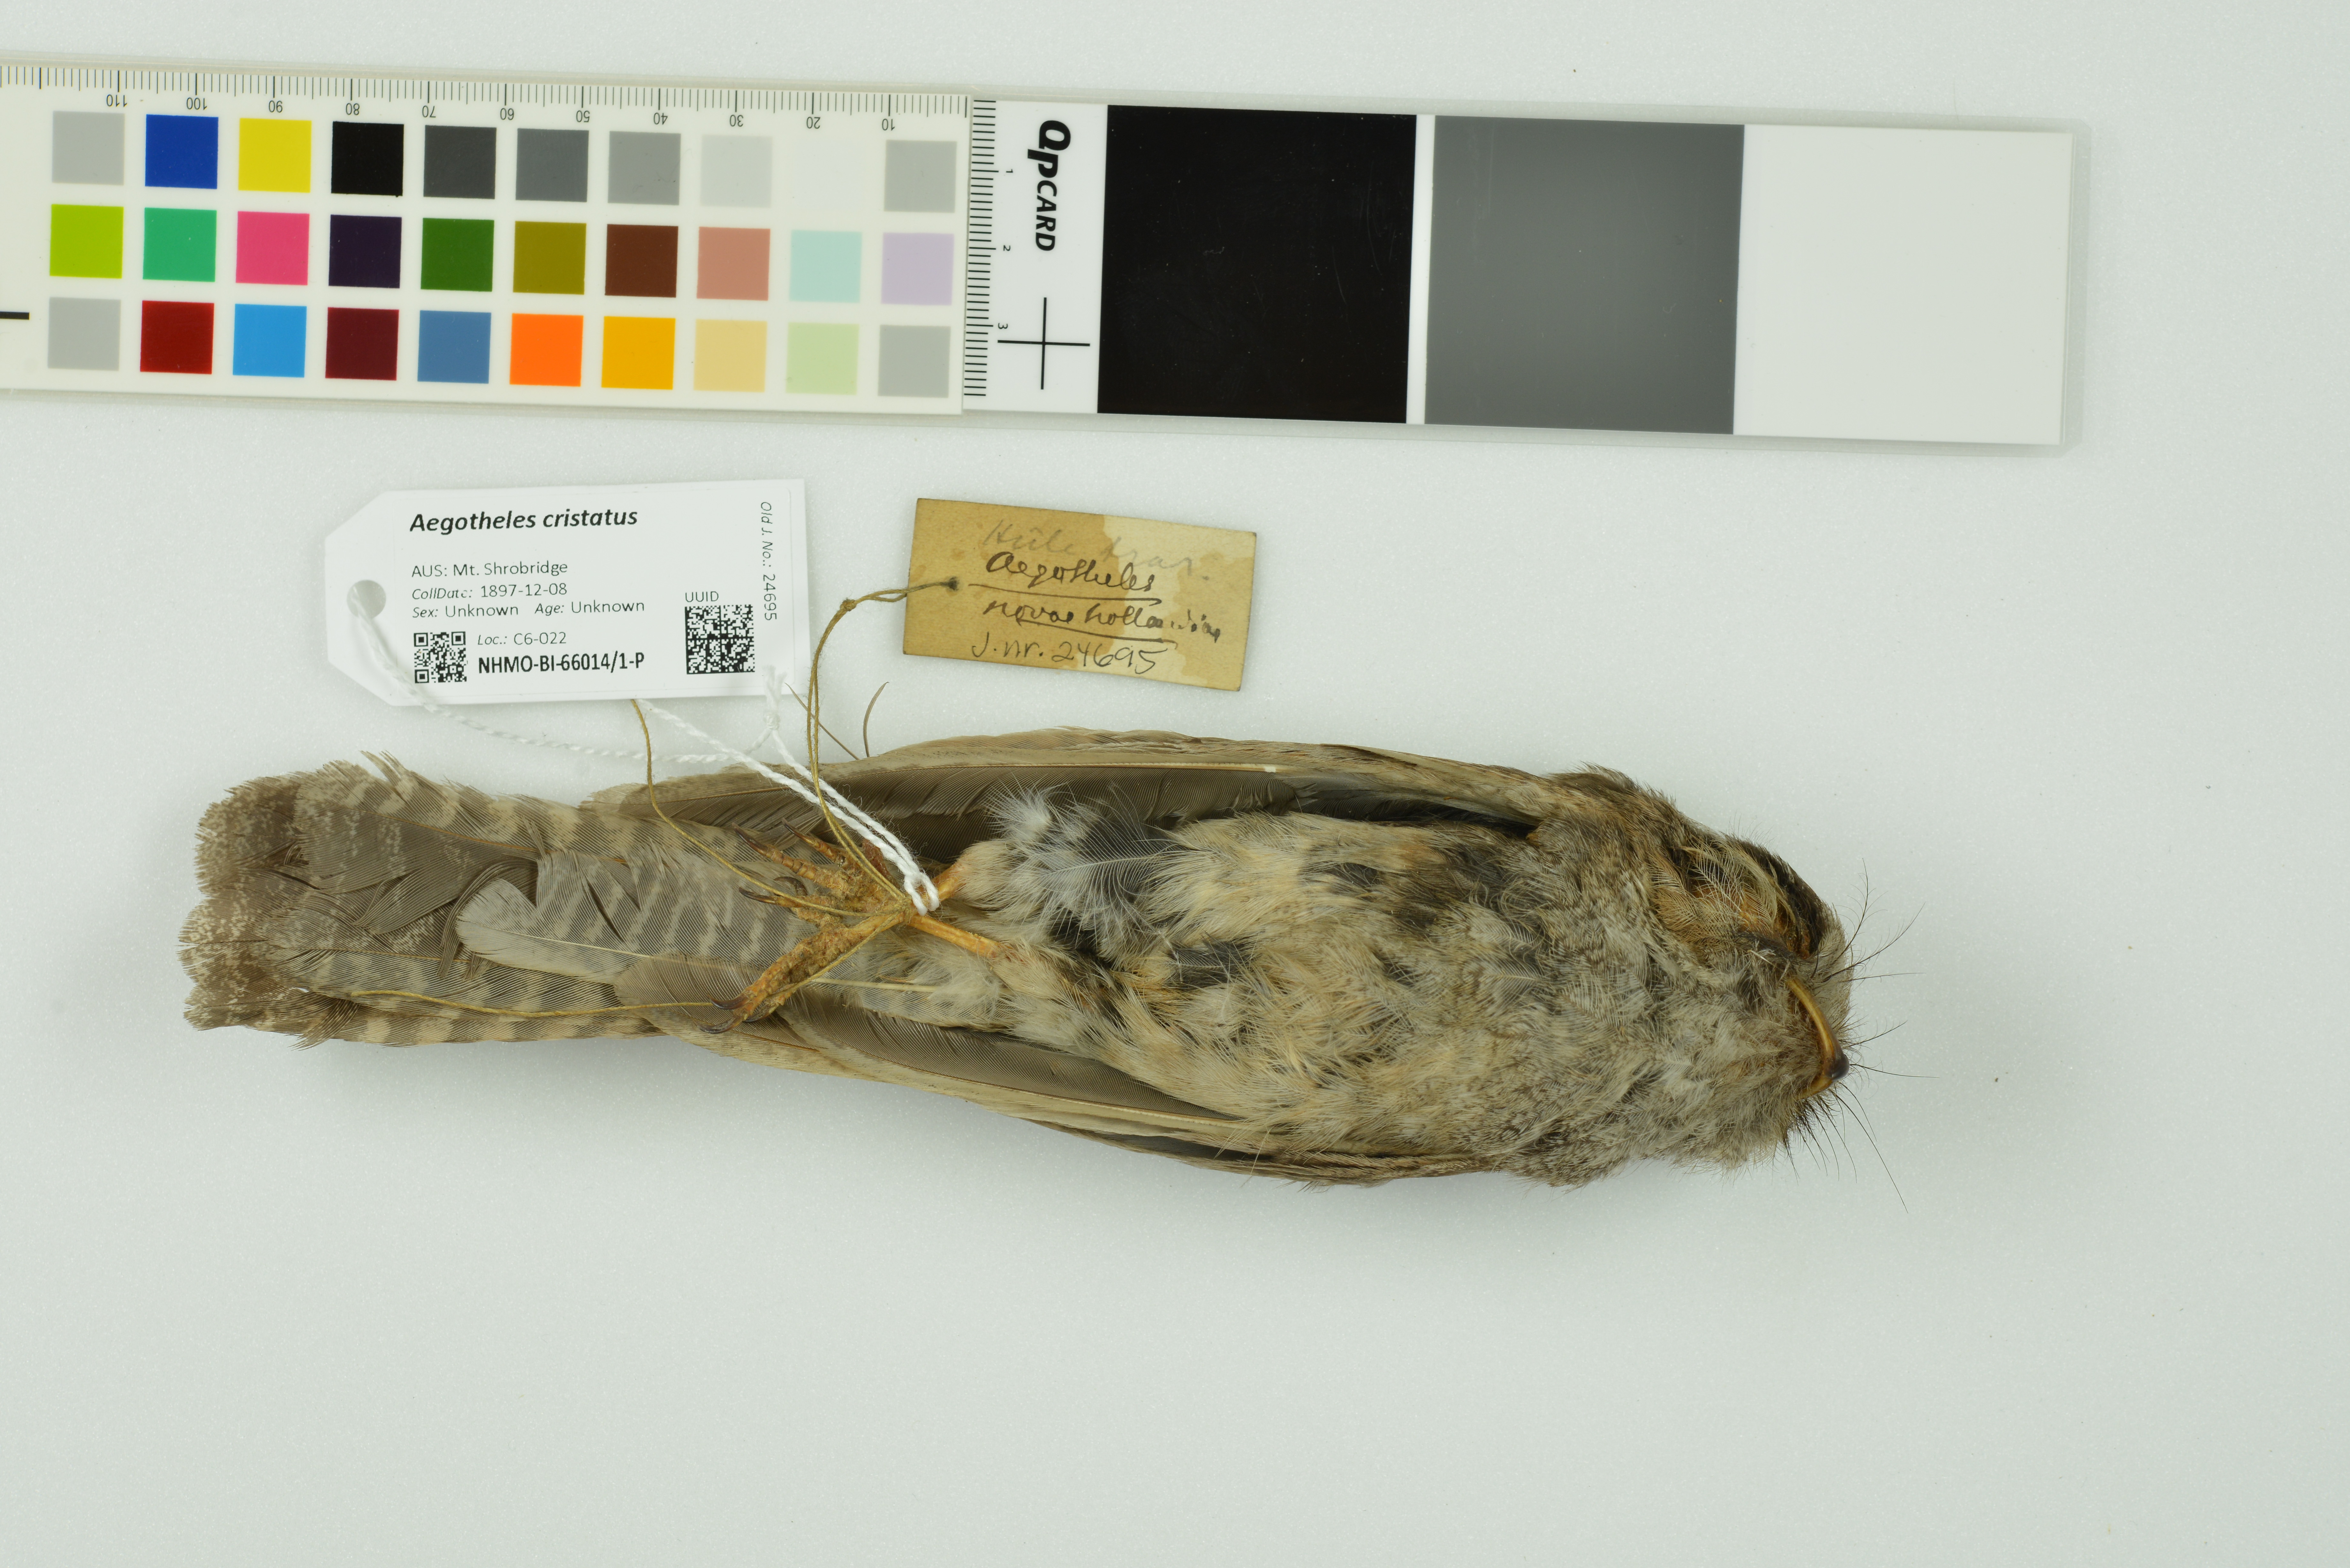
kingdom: Animalia
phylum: Chordata
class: Aves
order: Apodiformes
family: Aegothelidae
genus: Aegotheles
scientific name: Aegotheles cristatus
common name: Australian owlet-nightjar
